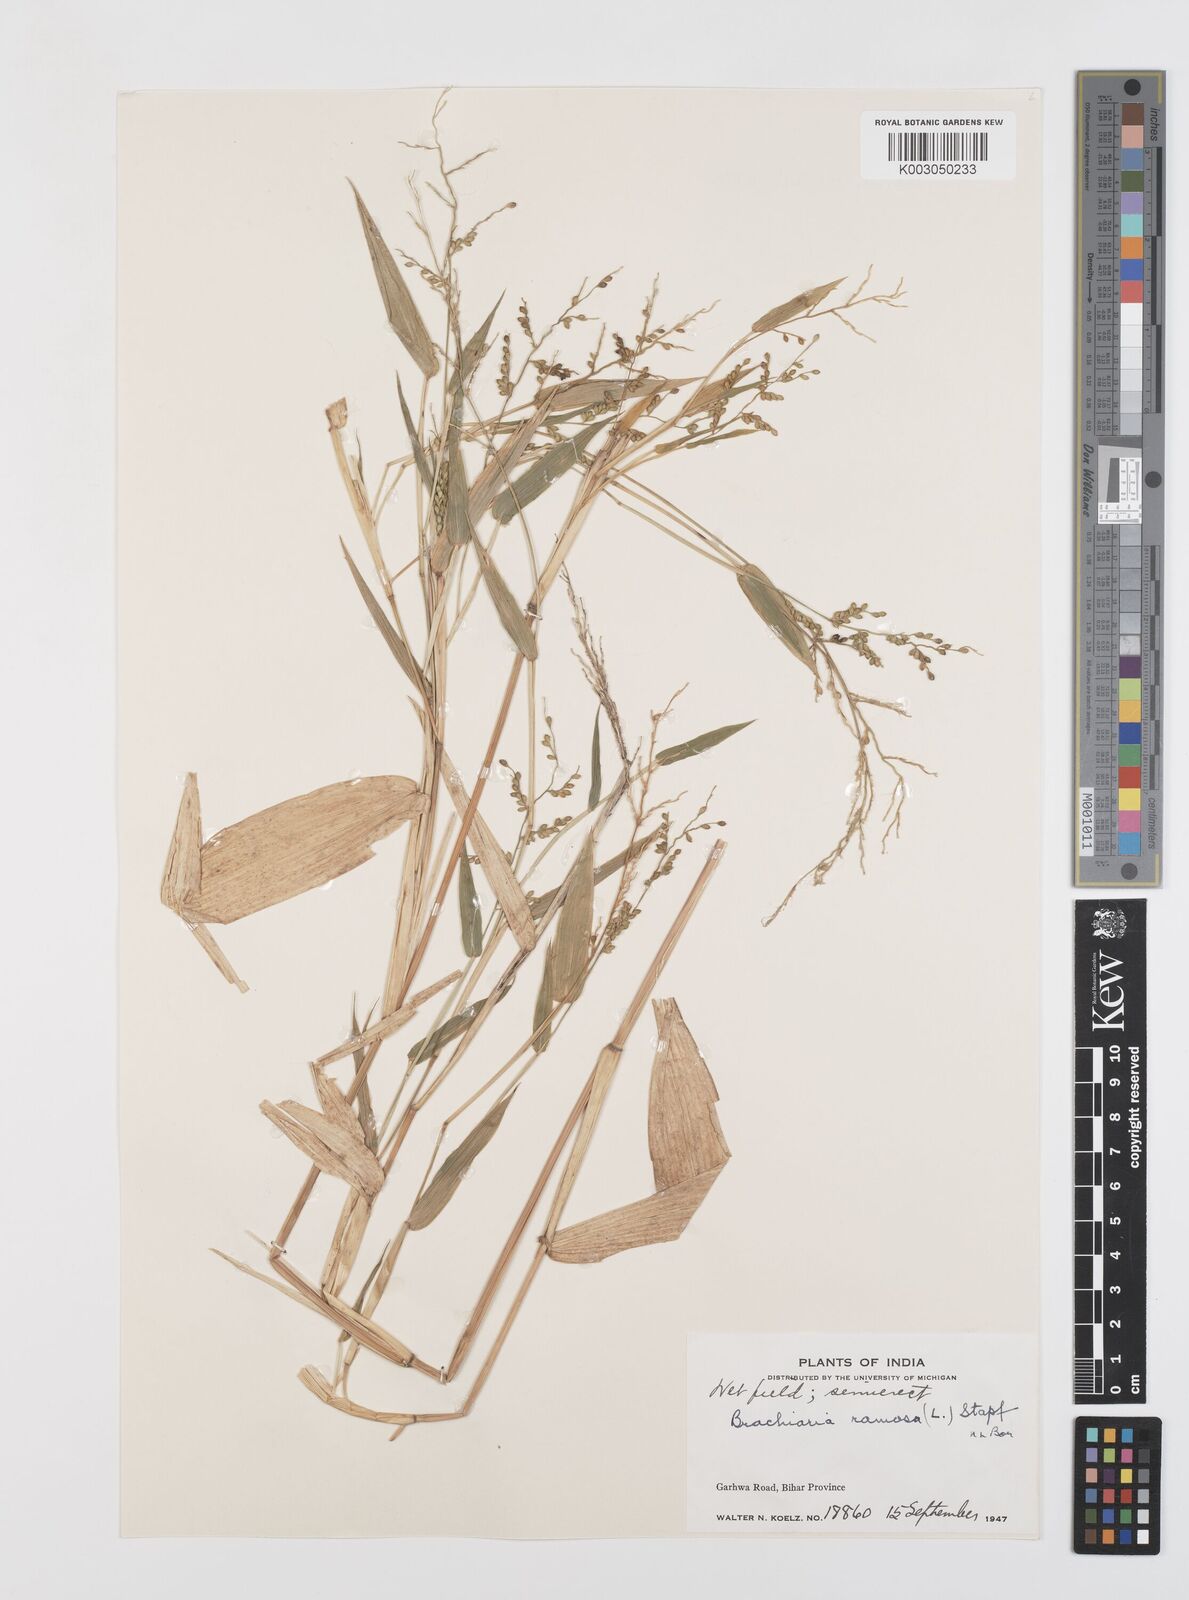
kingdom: Plantae
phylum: Tracheophyta
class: Liliopsida
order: Poales
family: Poaceae
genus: Urochloa
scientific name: Urochloa ramosa
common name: Browntop millet
